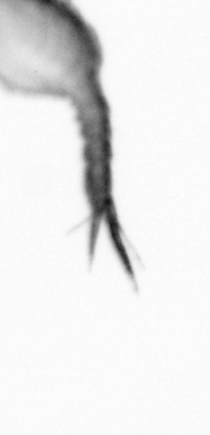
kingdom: Animalia
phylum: Arthropoda
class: Copepoda
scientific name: Copepoda
